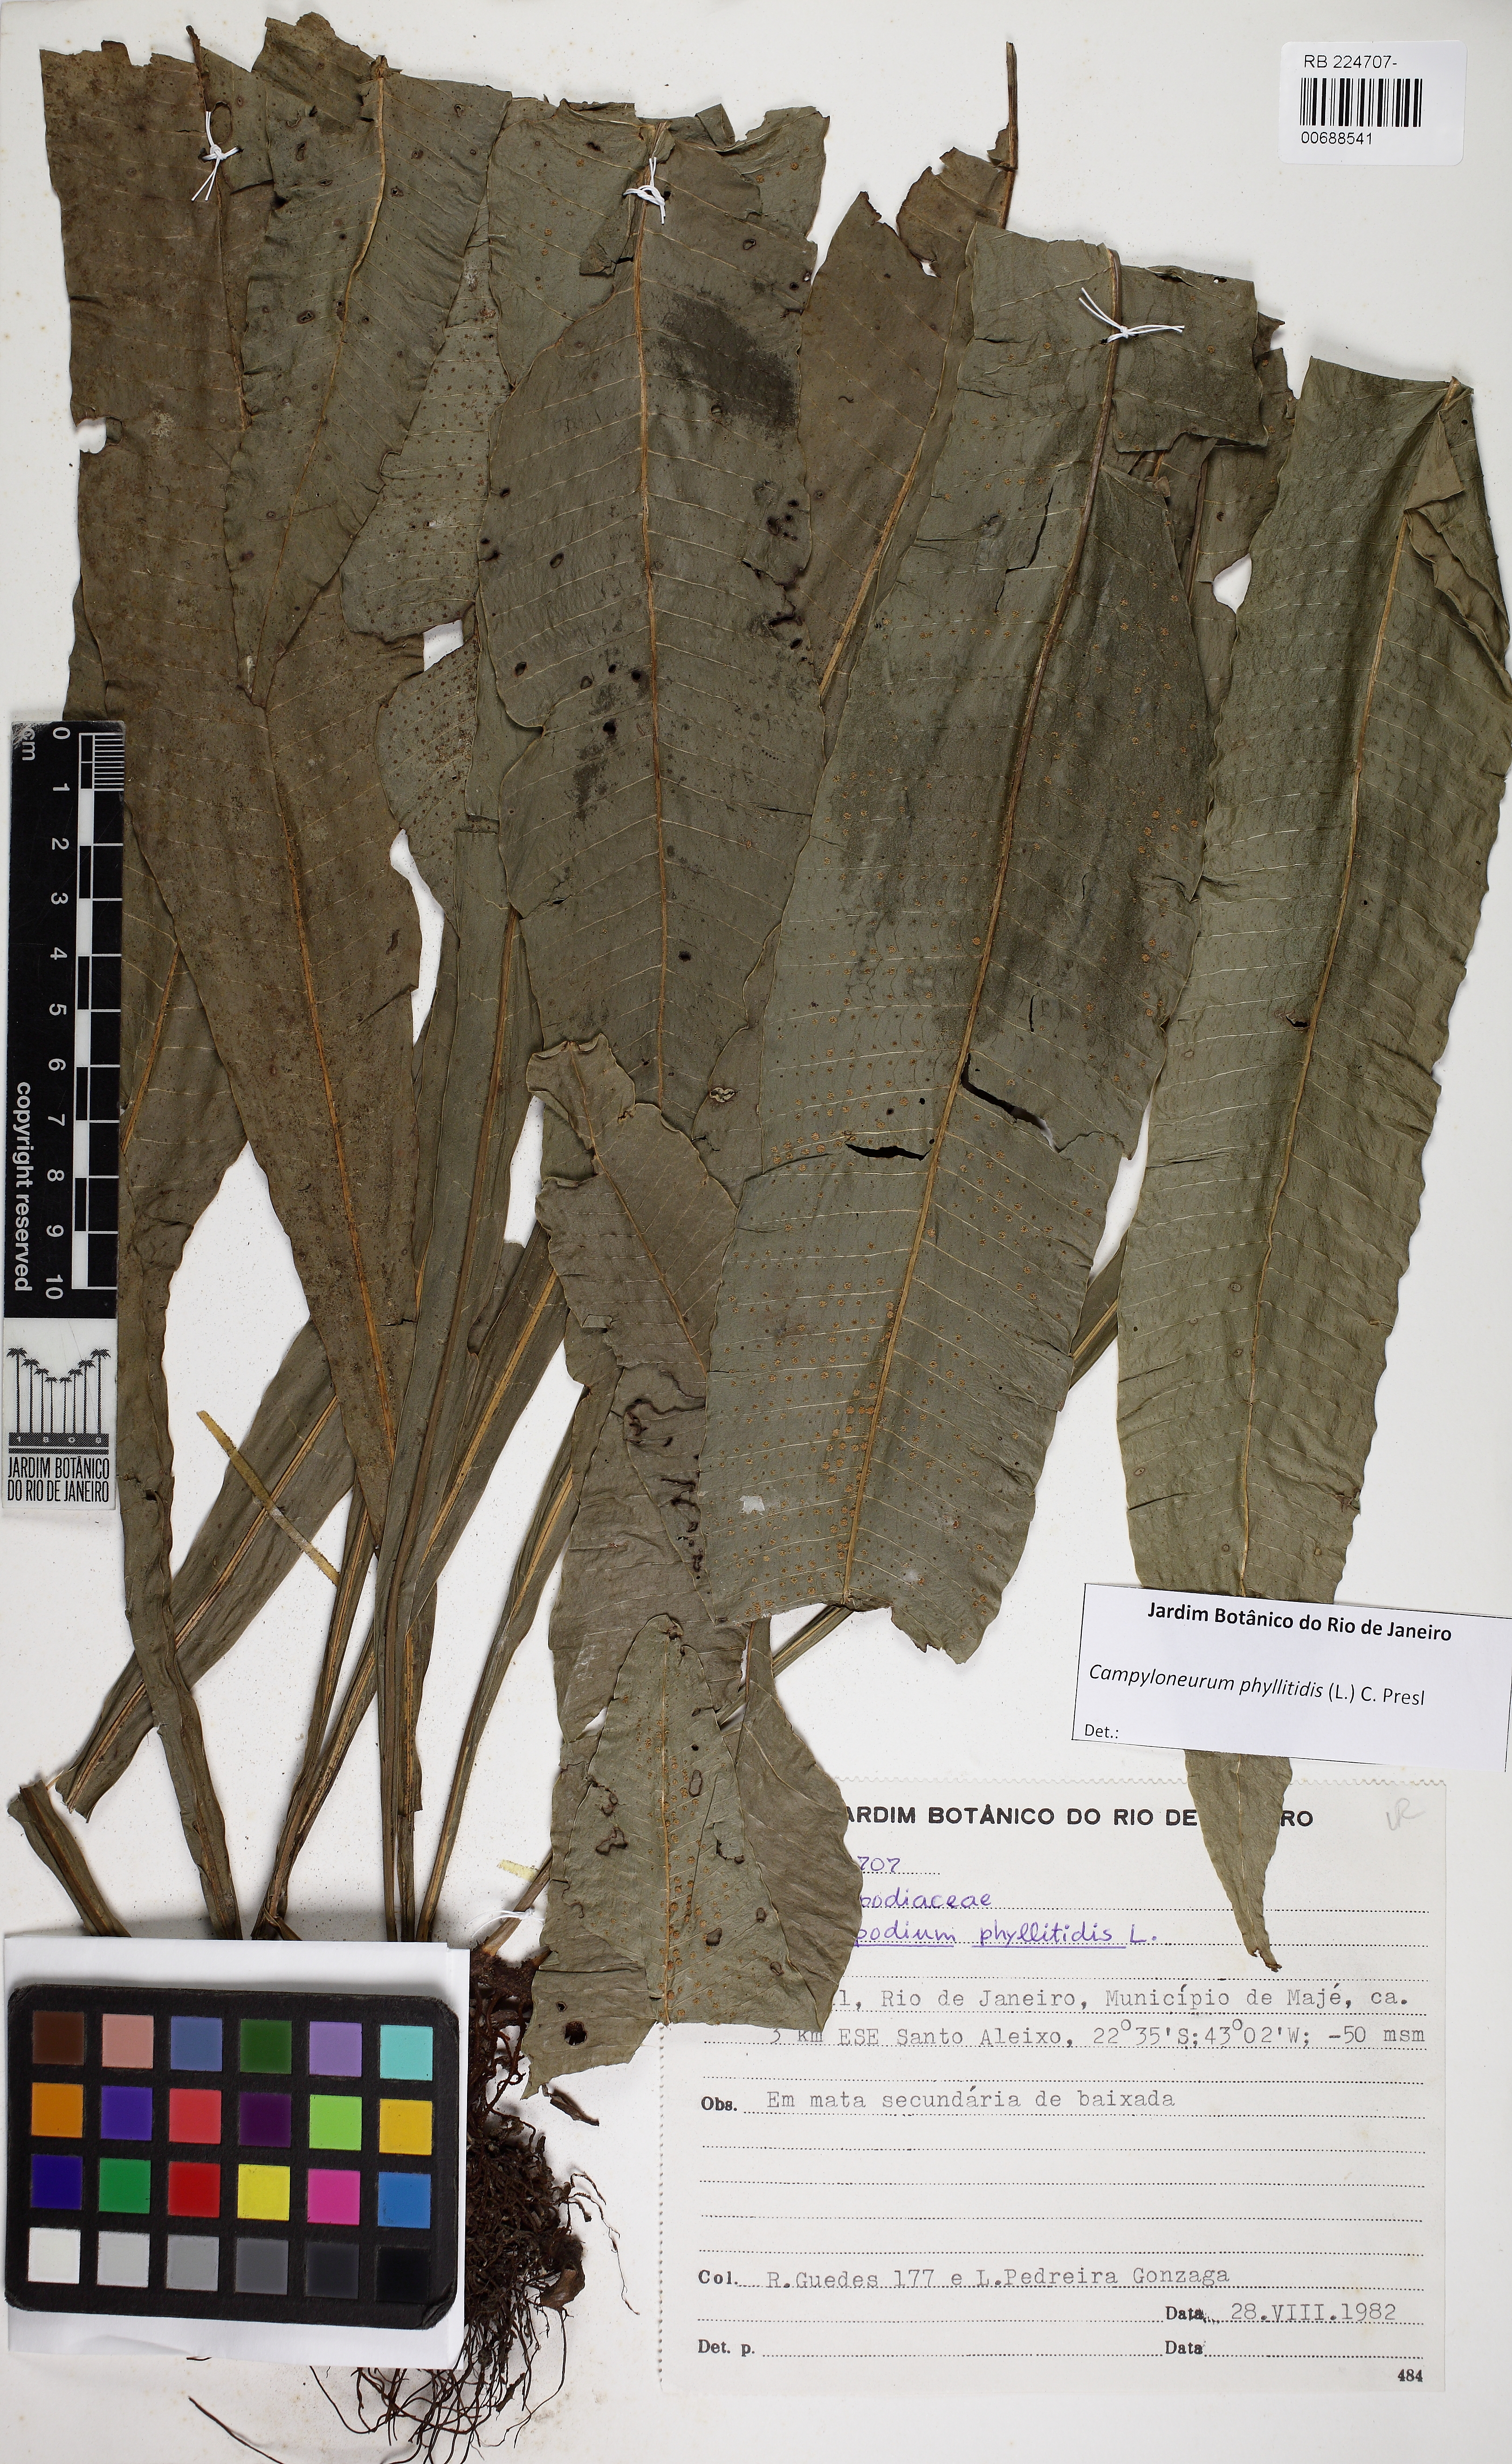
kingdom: Plantae
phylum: Tracheophyta
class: Polypodiopsida
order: Polypodiales
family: Polypodiaceae
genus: Campyloneurum
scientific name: Campyloneurum phyllitidis
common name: Cow-tongue fern
